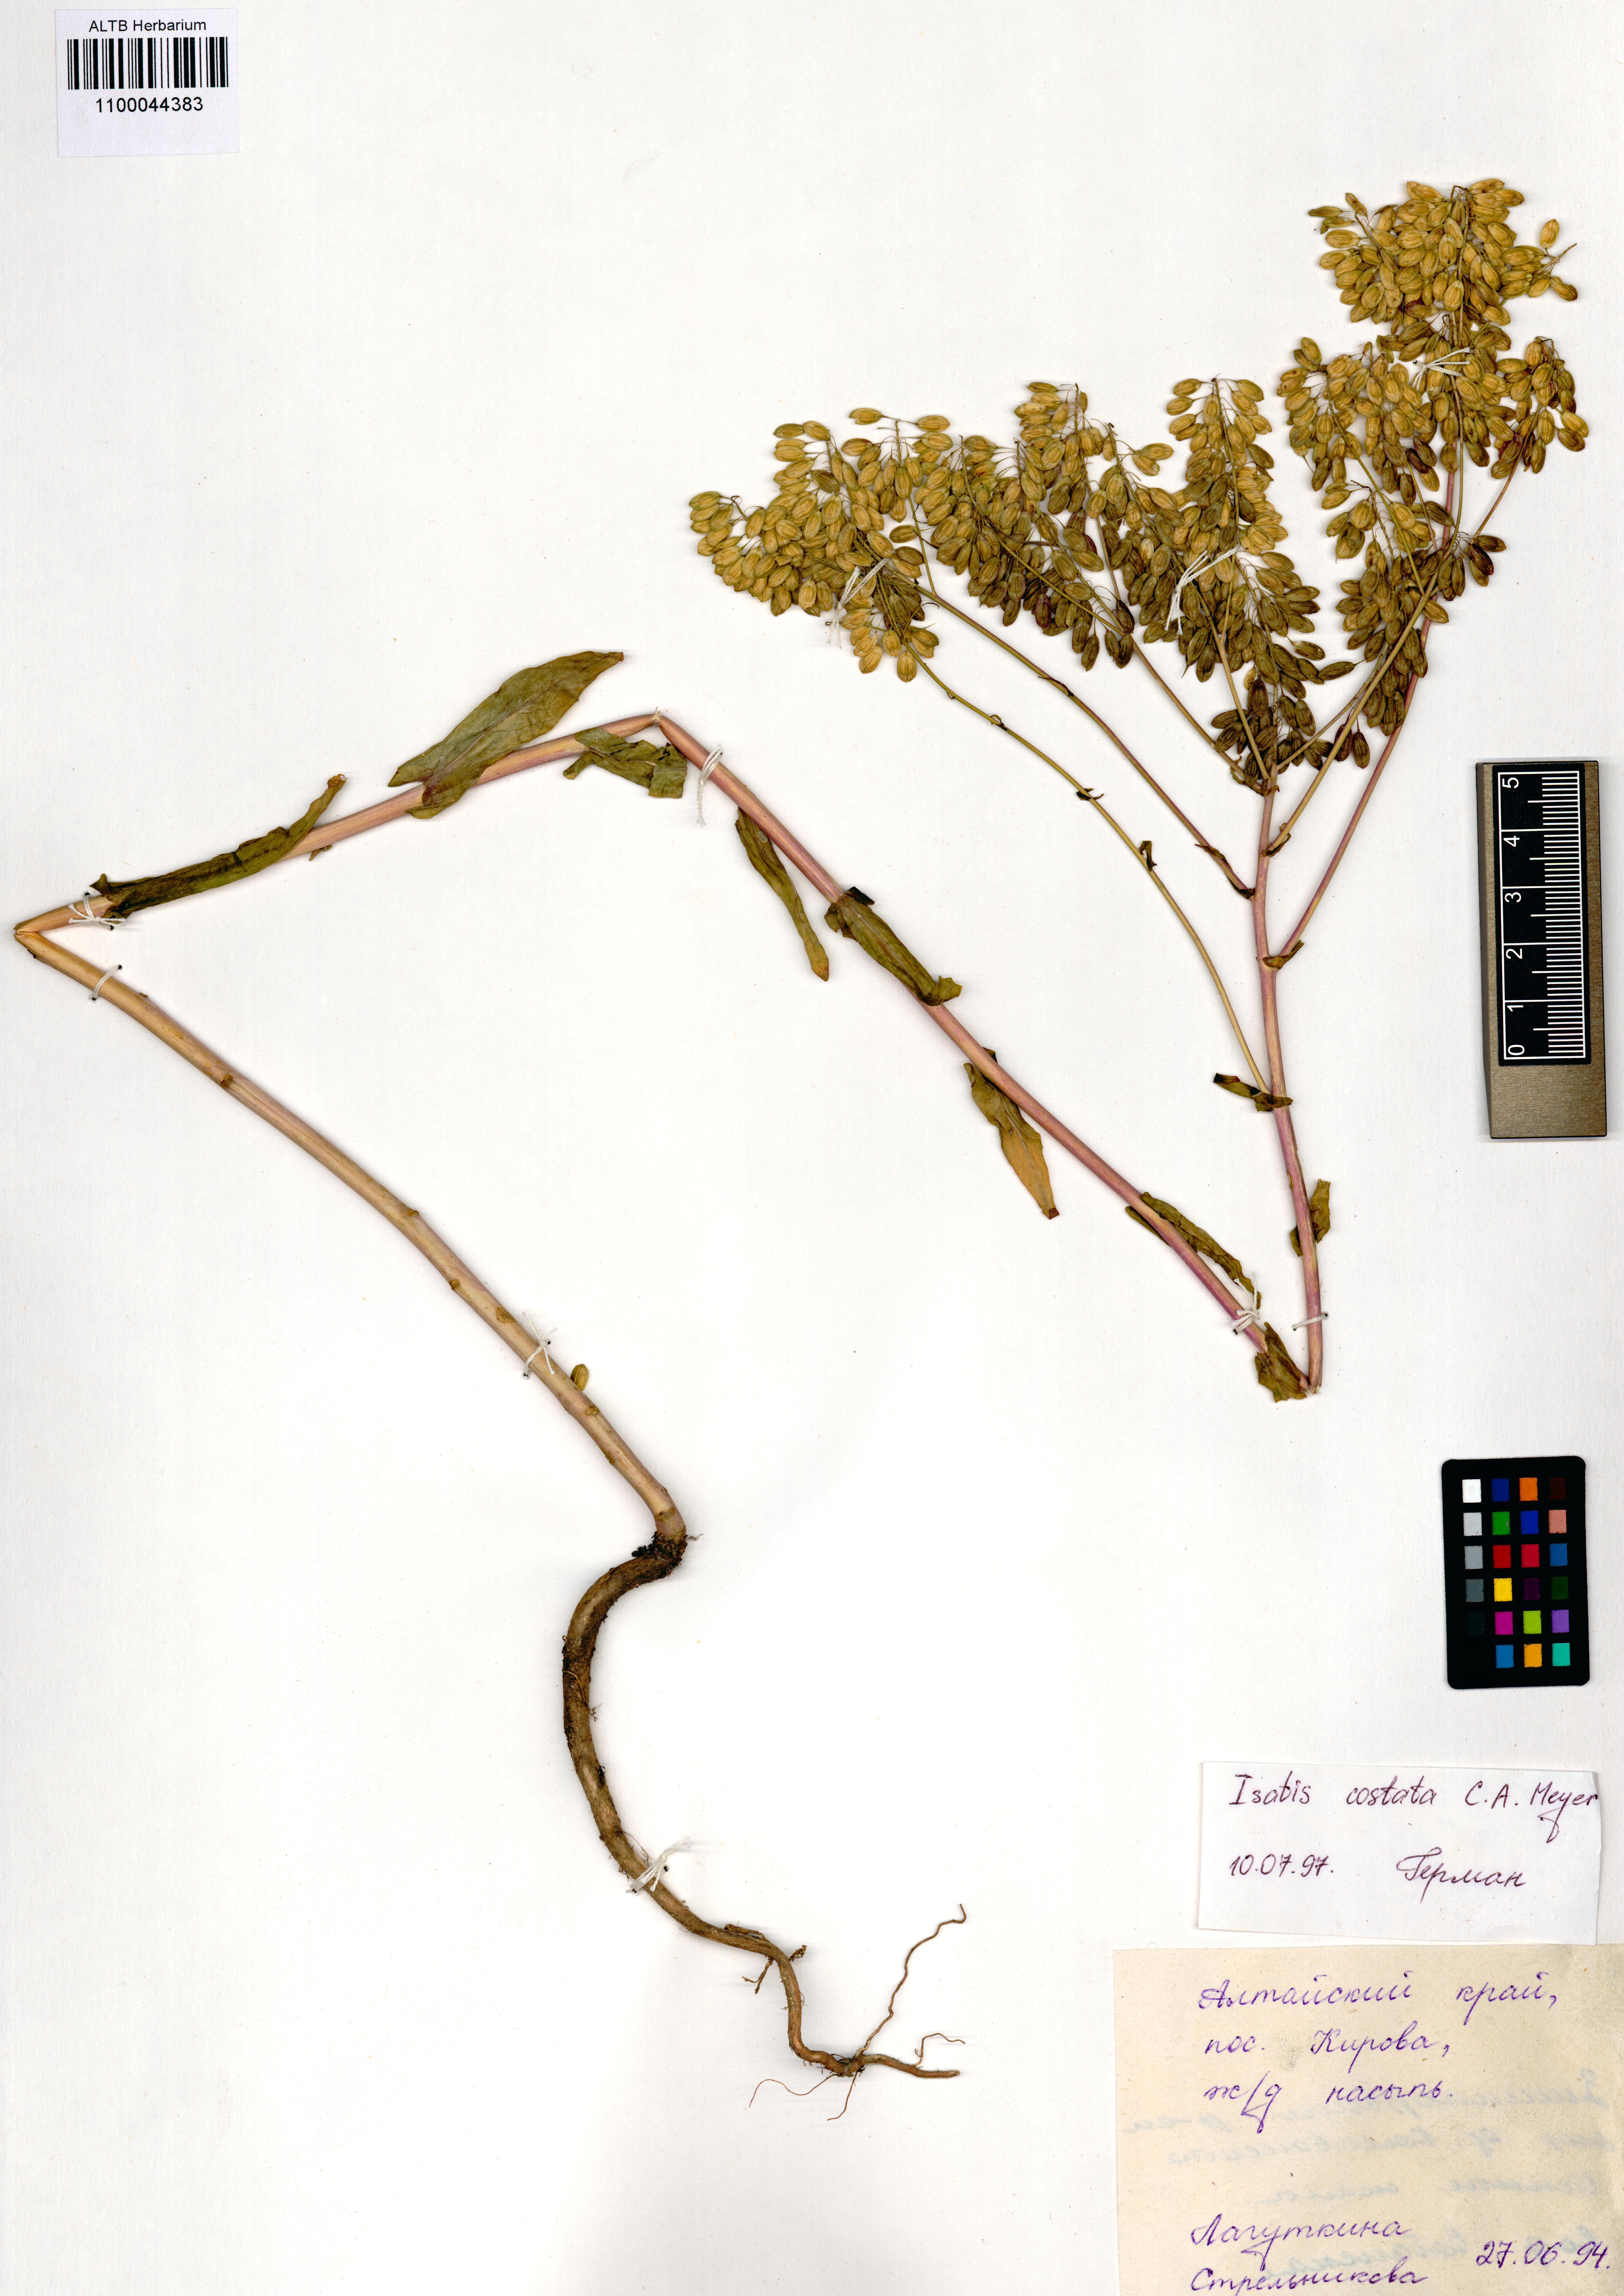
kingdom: Plantae
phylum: Tracheophyta
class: Magnoliopsida
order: Brassicales
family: Brassicaceae
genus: Isatis
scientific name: Isatis costata
